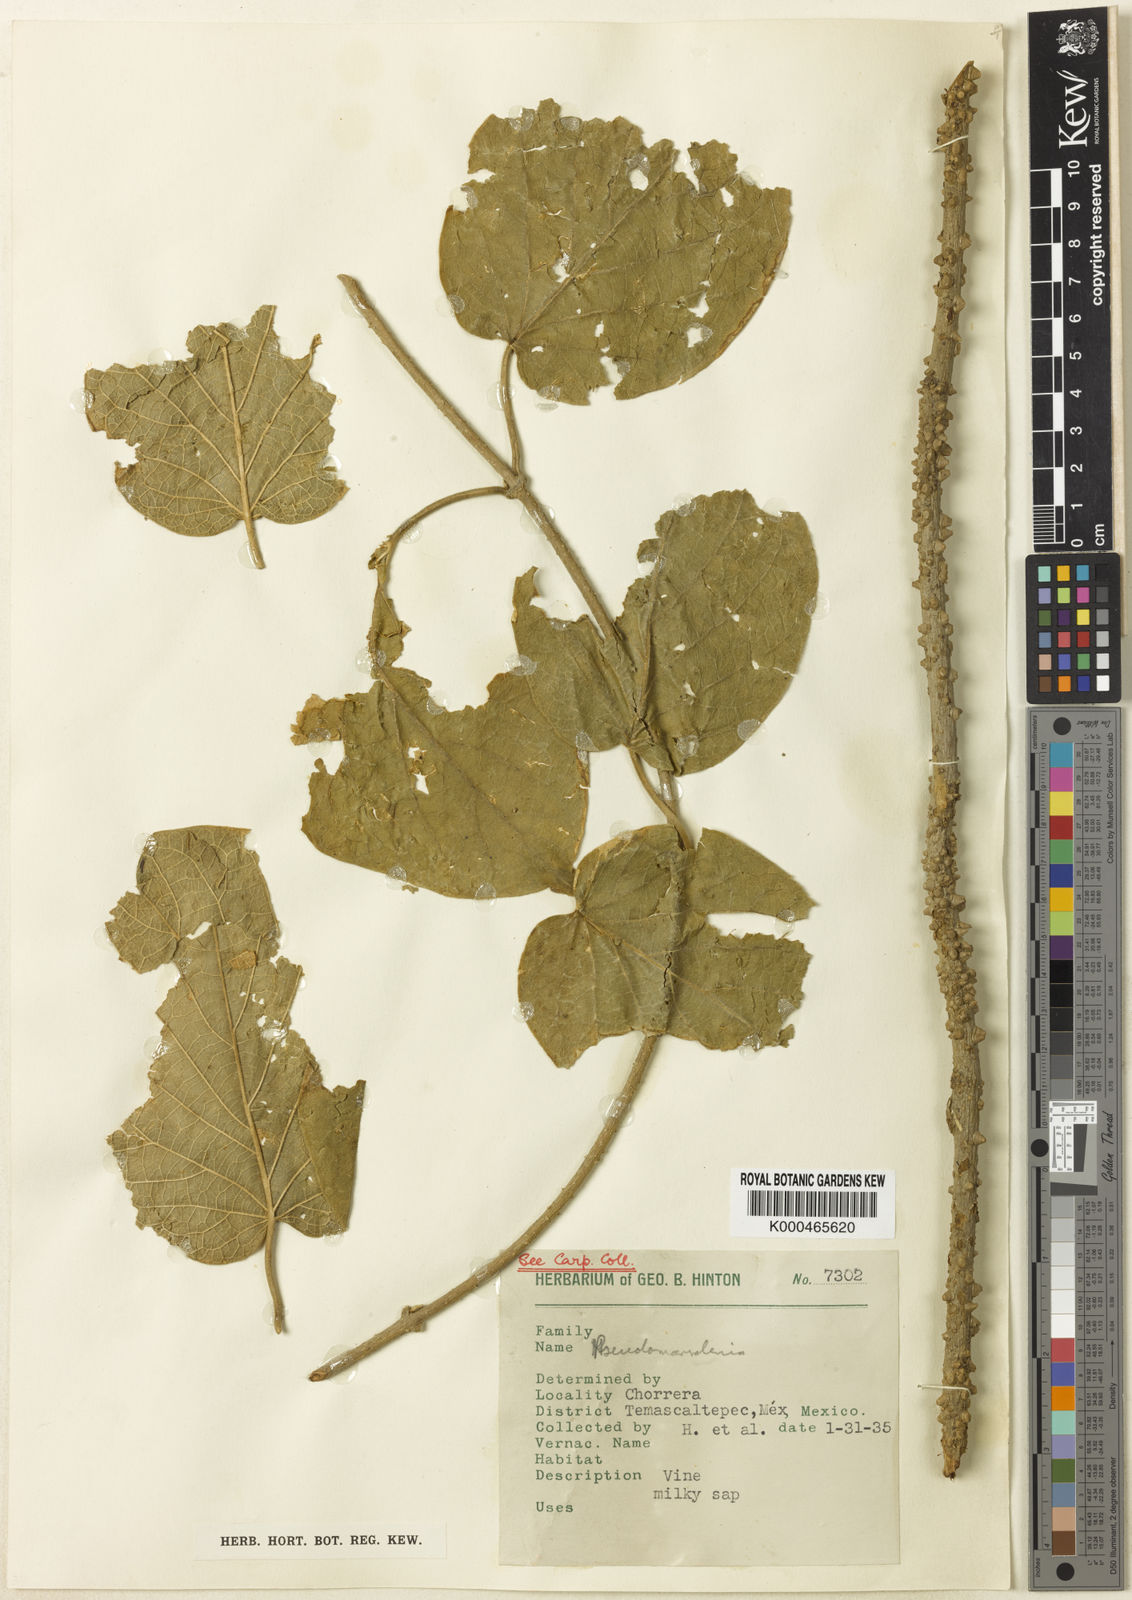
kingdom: Plantae
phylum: Tracheophyta
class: Magnoliopsida
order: Gentianales
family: Apocynaceae
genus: Ruehssia
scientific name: Ruehssia lanata
